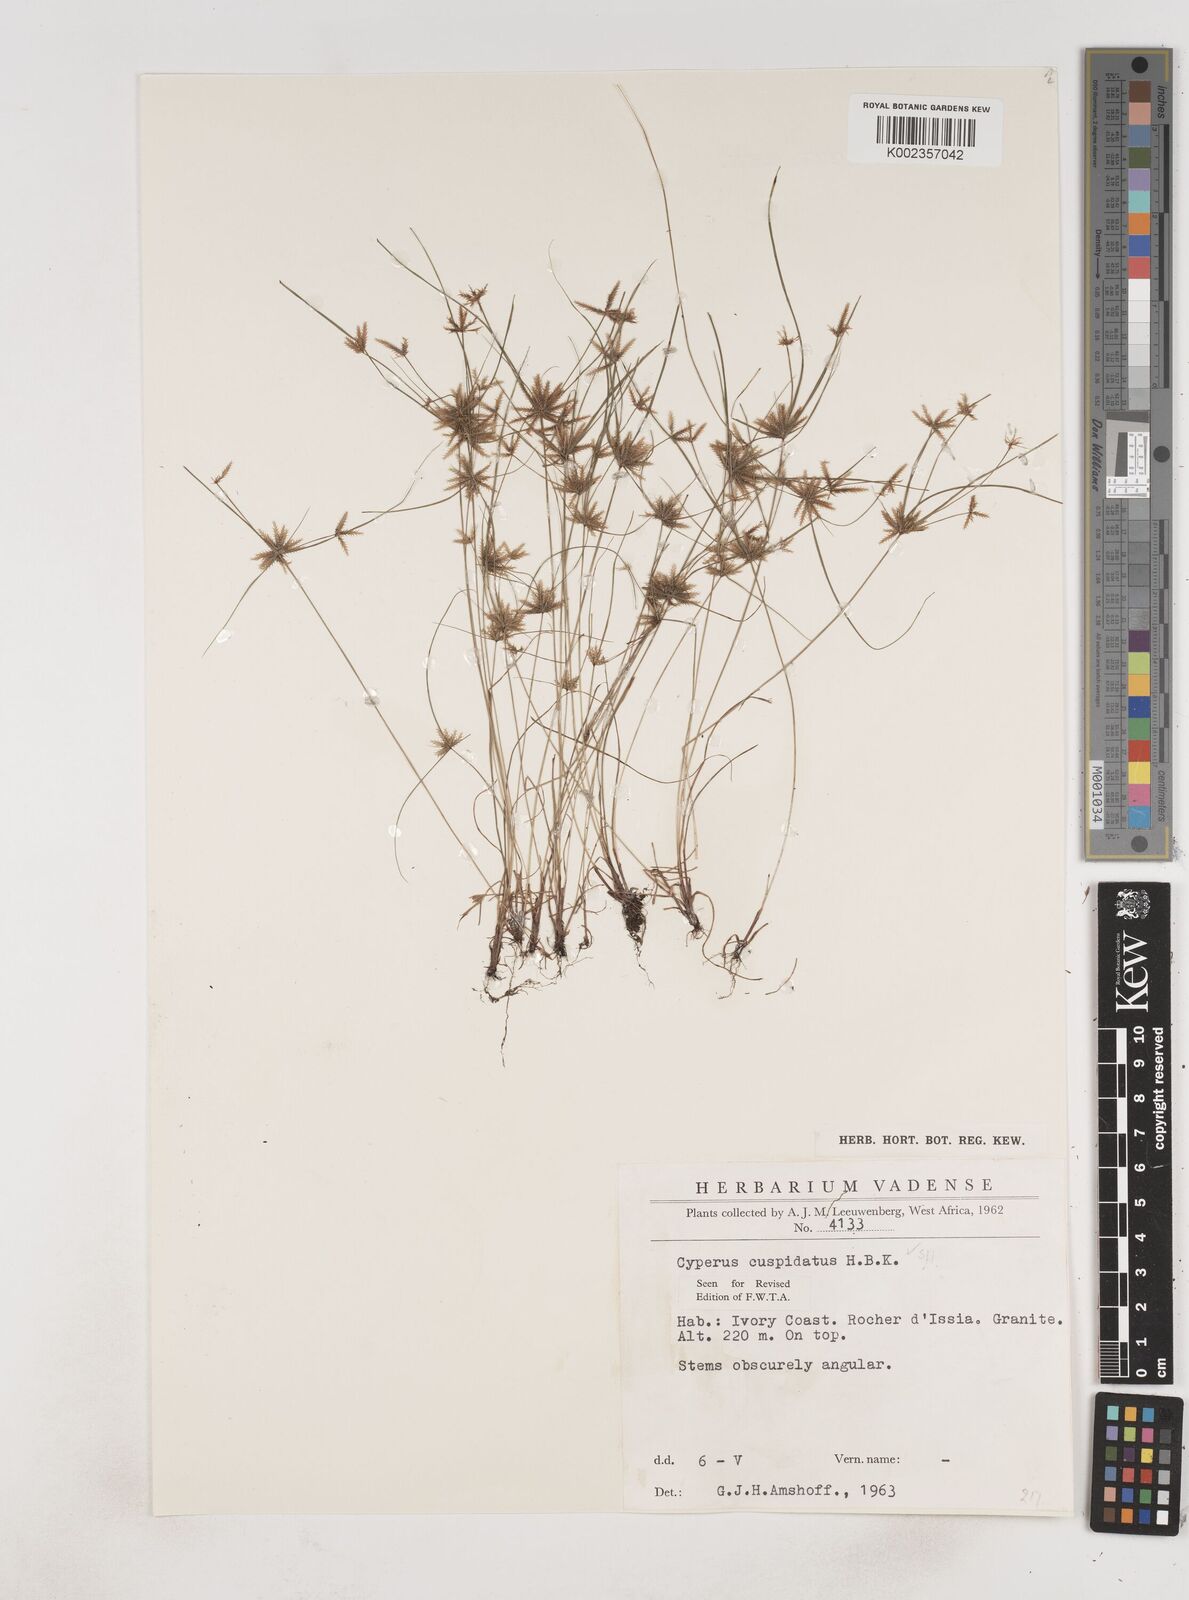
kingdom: Plantae
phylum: Tracheophyta
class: Liliopsida
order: Poales
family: Cyperaceae
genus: Cyperus
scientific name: Cyperus
